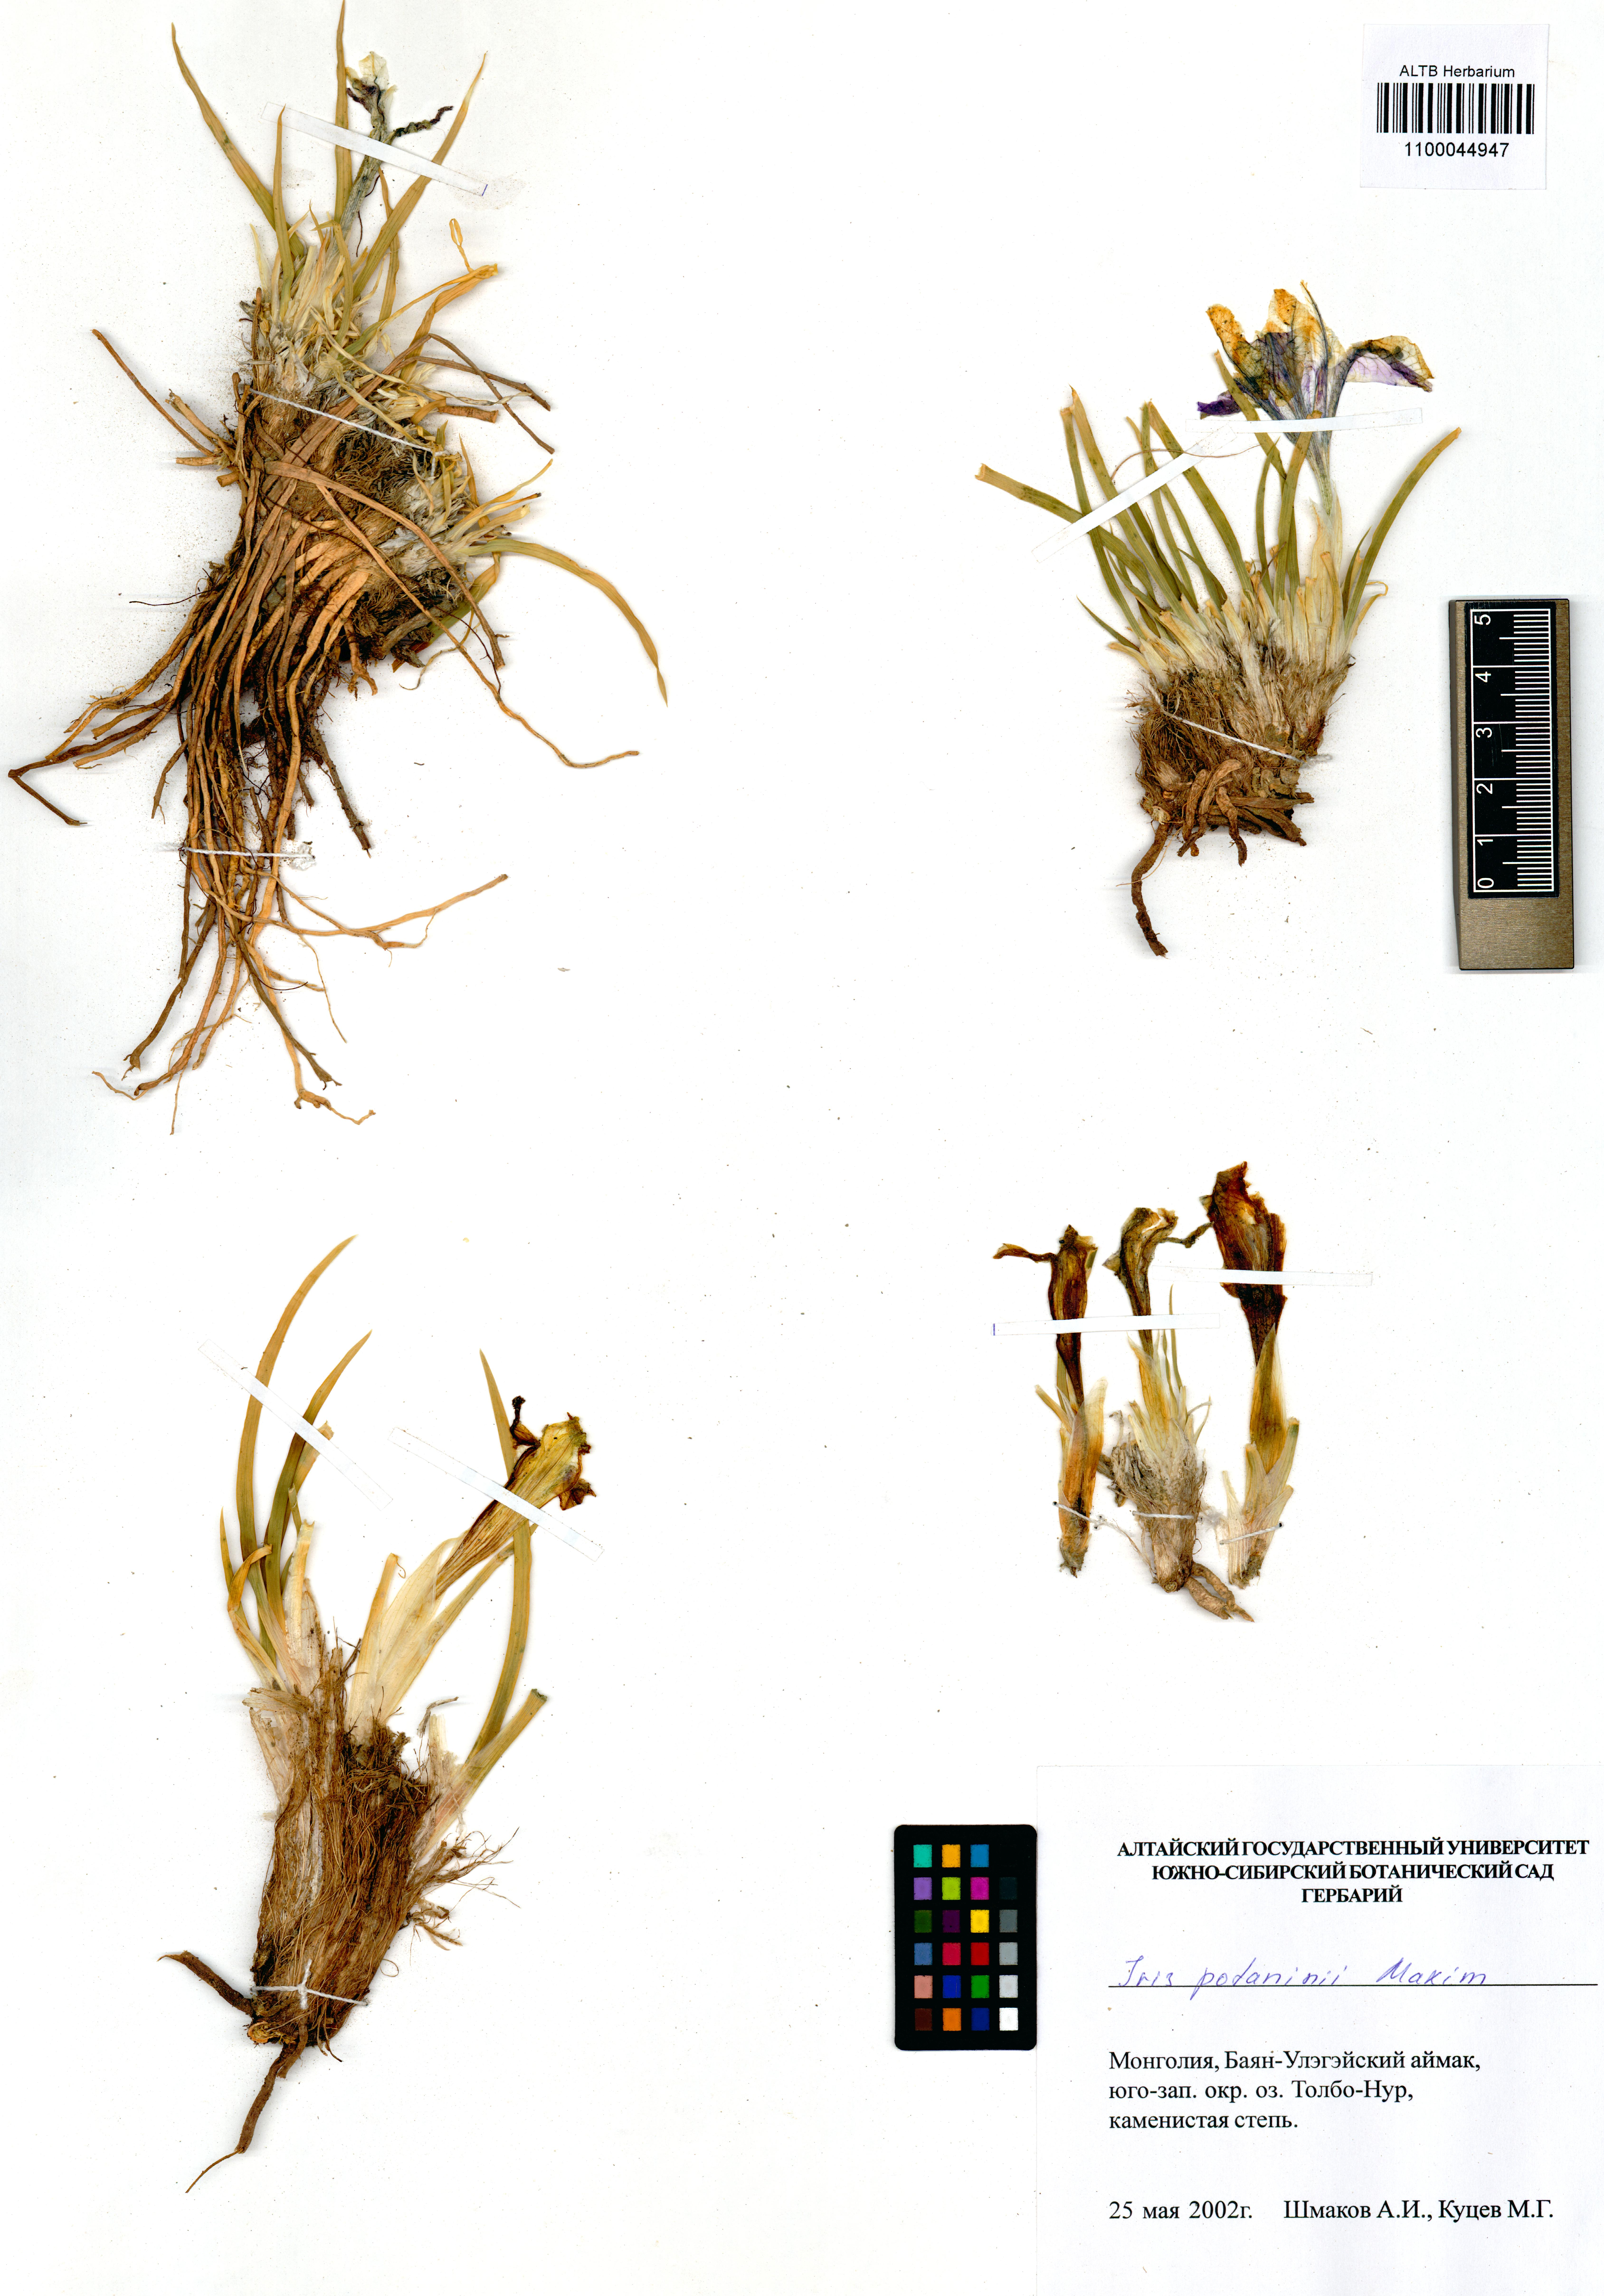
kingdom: Plantae
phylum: Tracheophyta
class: Liliopsida
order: Asparagales
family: Iridaceae
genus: Iris
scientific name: Iris potaninii
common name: Curl-sheath iris
